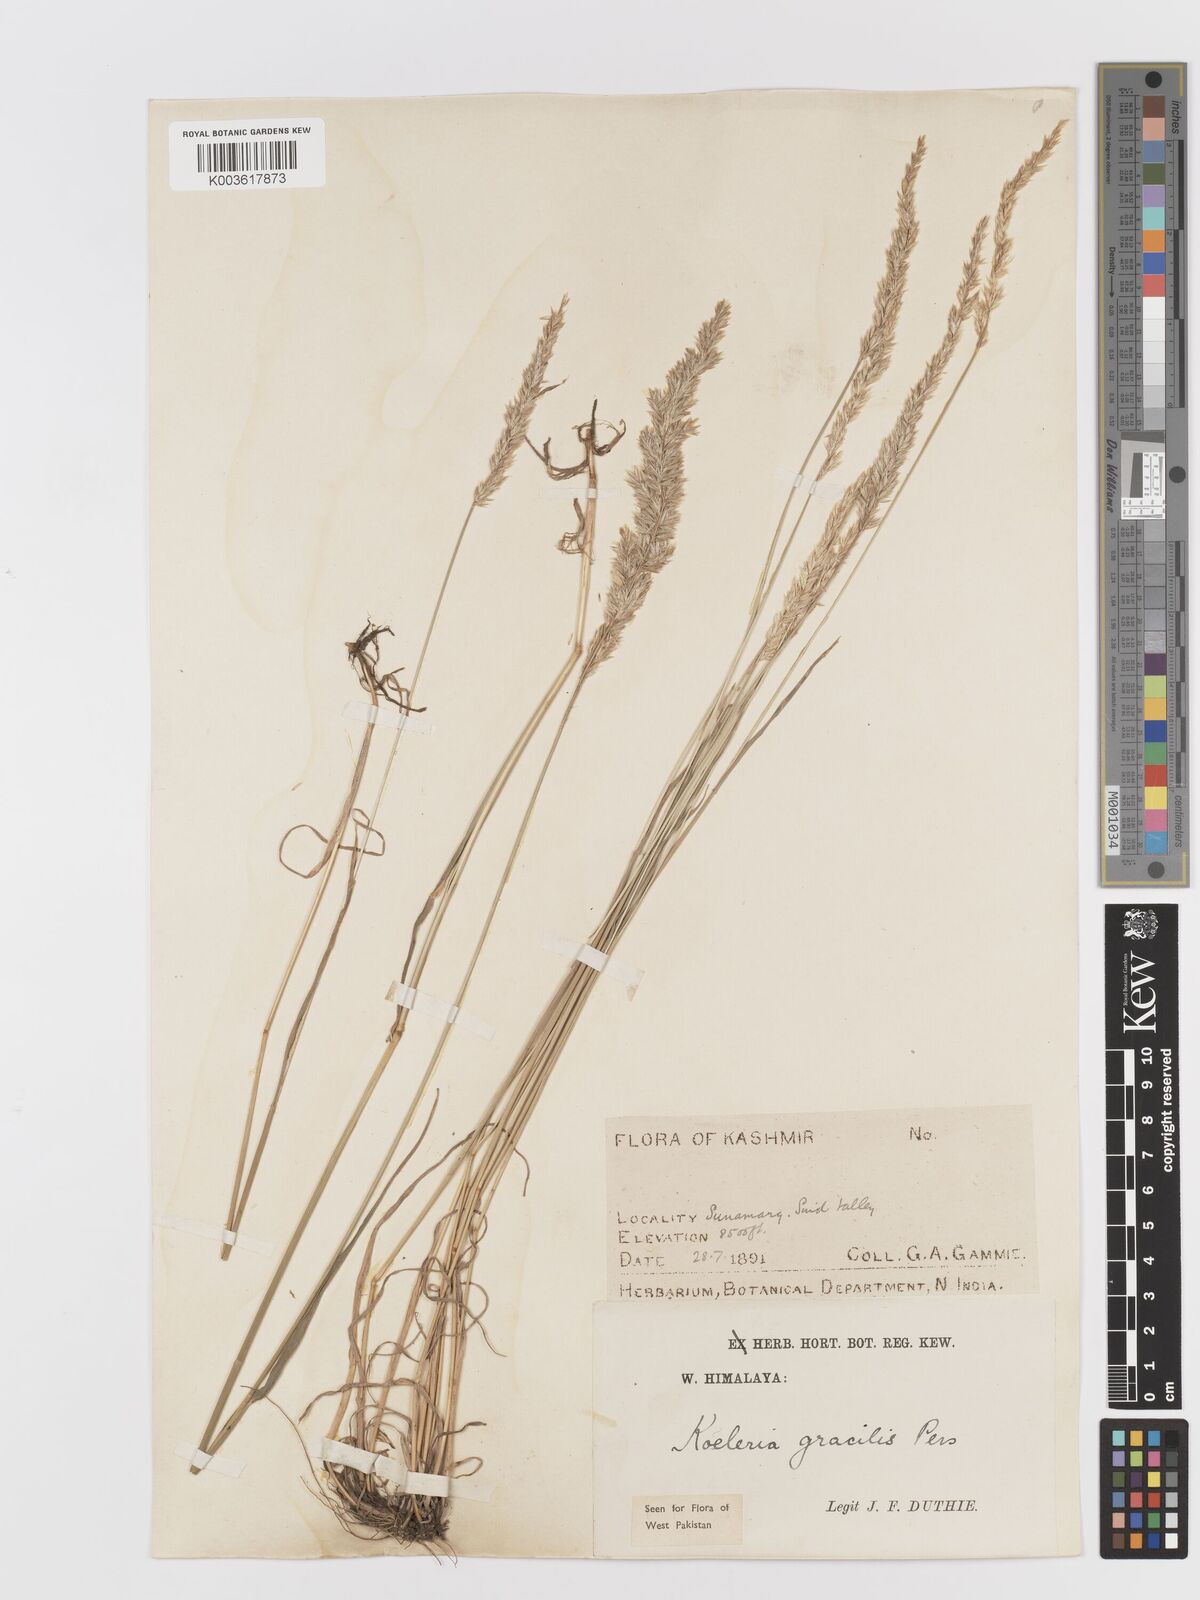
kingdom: Plantae
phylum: Tracheophyta
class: Liliopsida
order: Poales
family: Poaceae
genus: Koeleria
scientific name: Koeleria
